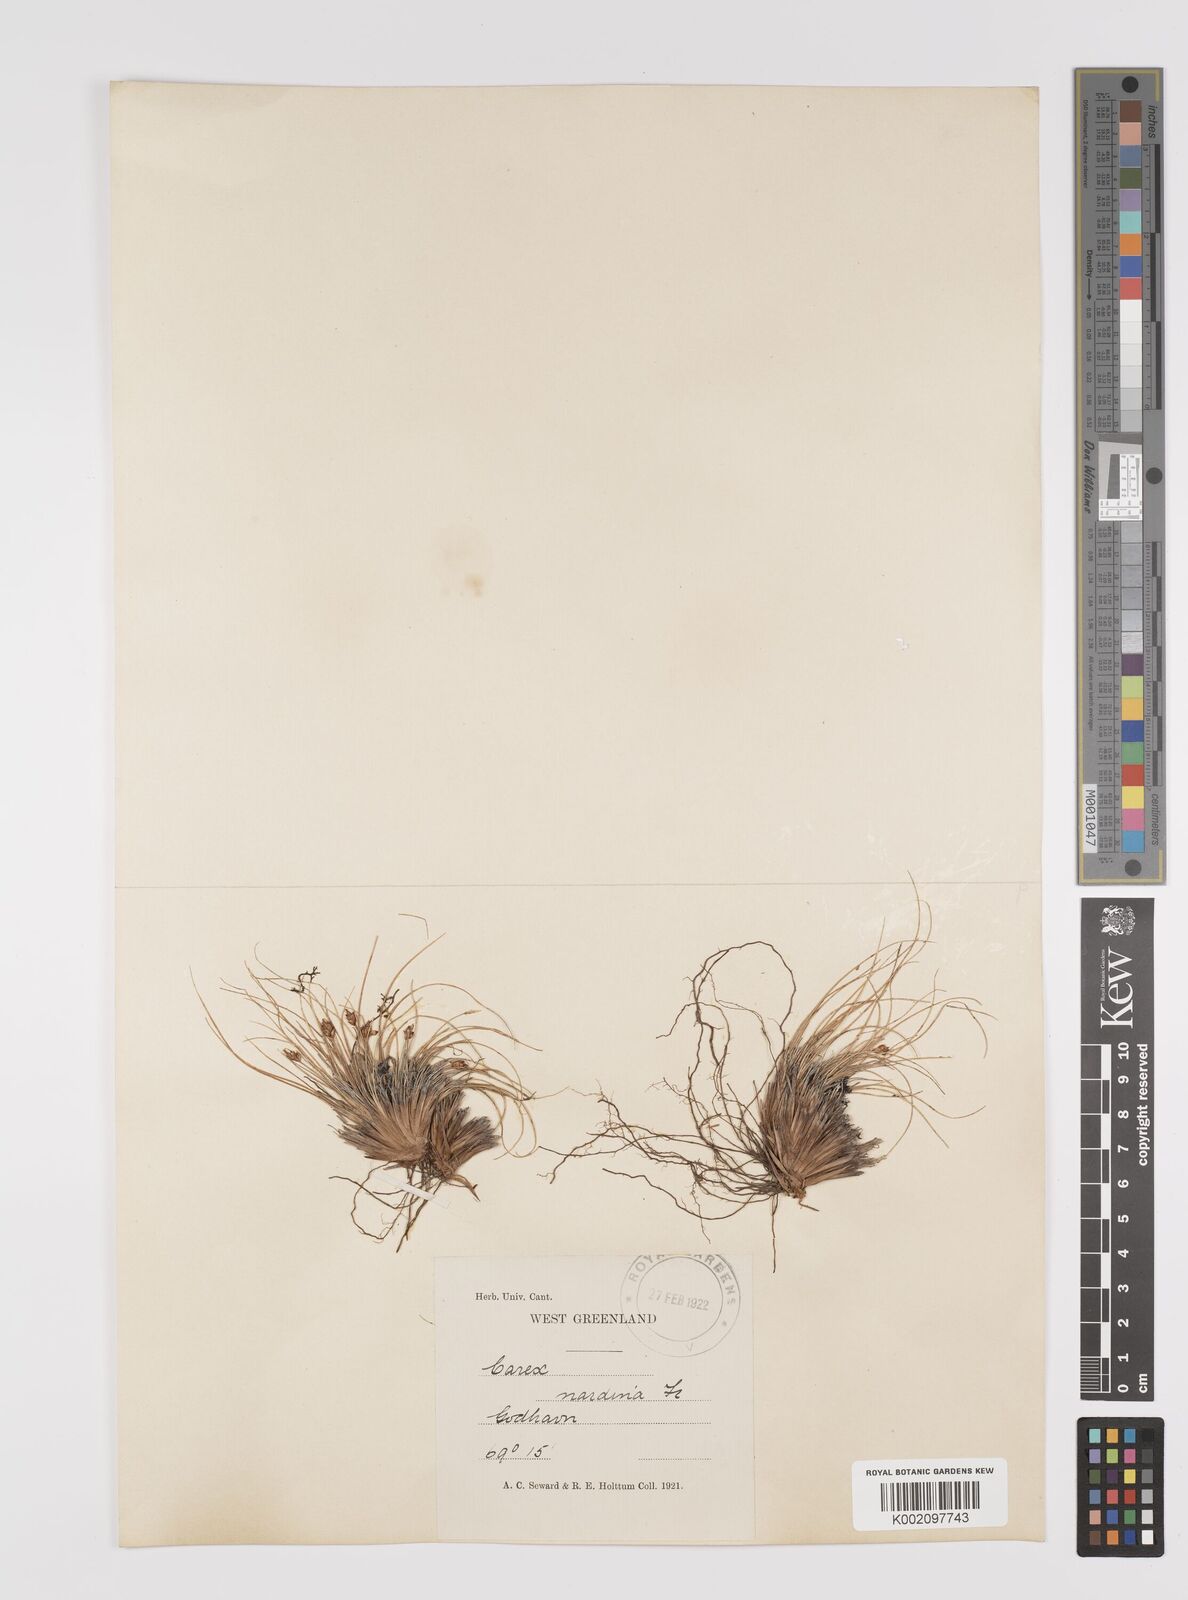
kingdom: Plantae
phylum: Tracheophyta
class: Liliopsida
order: Poales
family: Cyperaceae
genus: Carex
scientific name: Carex nardina
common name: Nard sedge
